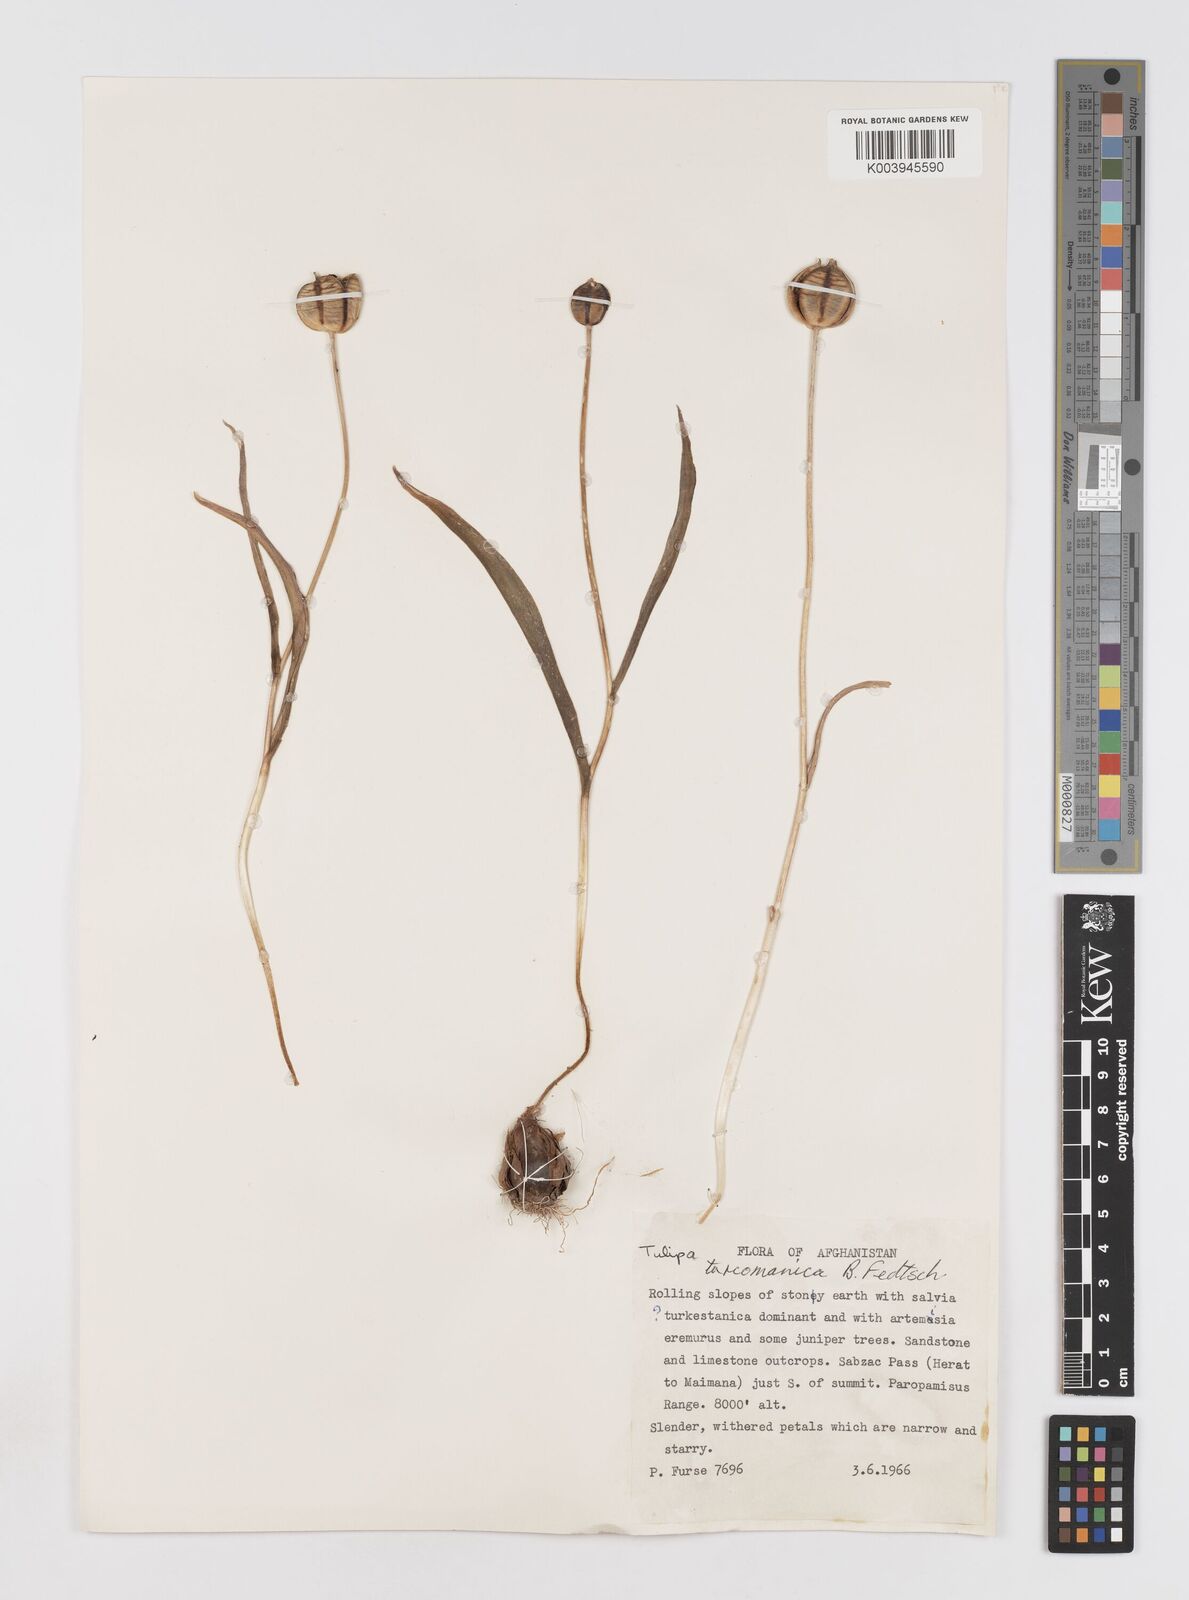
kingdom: Plantae
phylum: Tracheophyta
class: Liliopsida
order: Liliales
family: Liliaceae
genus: Tulipa
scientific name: Tulipa biflora
